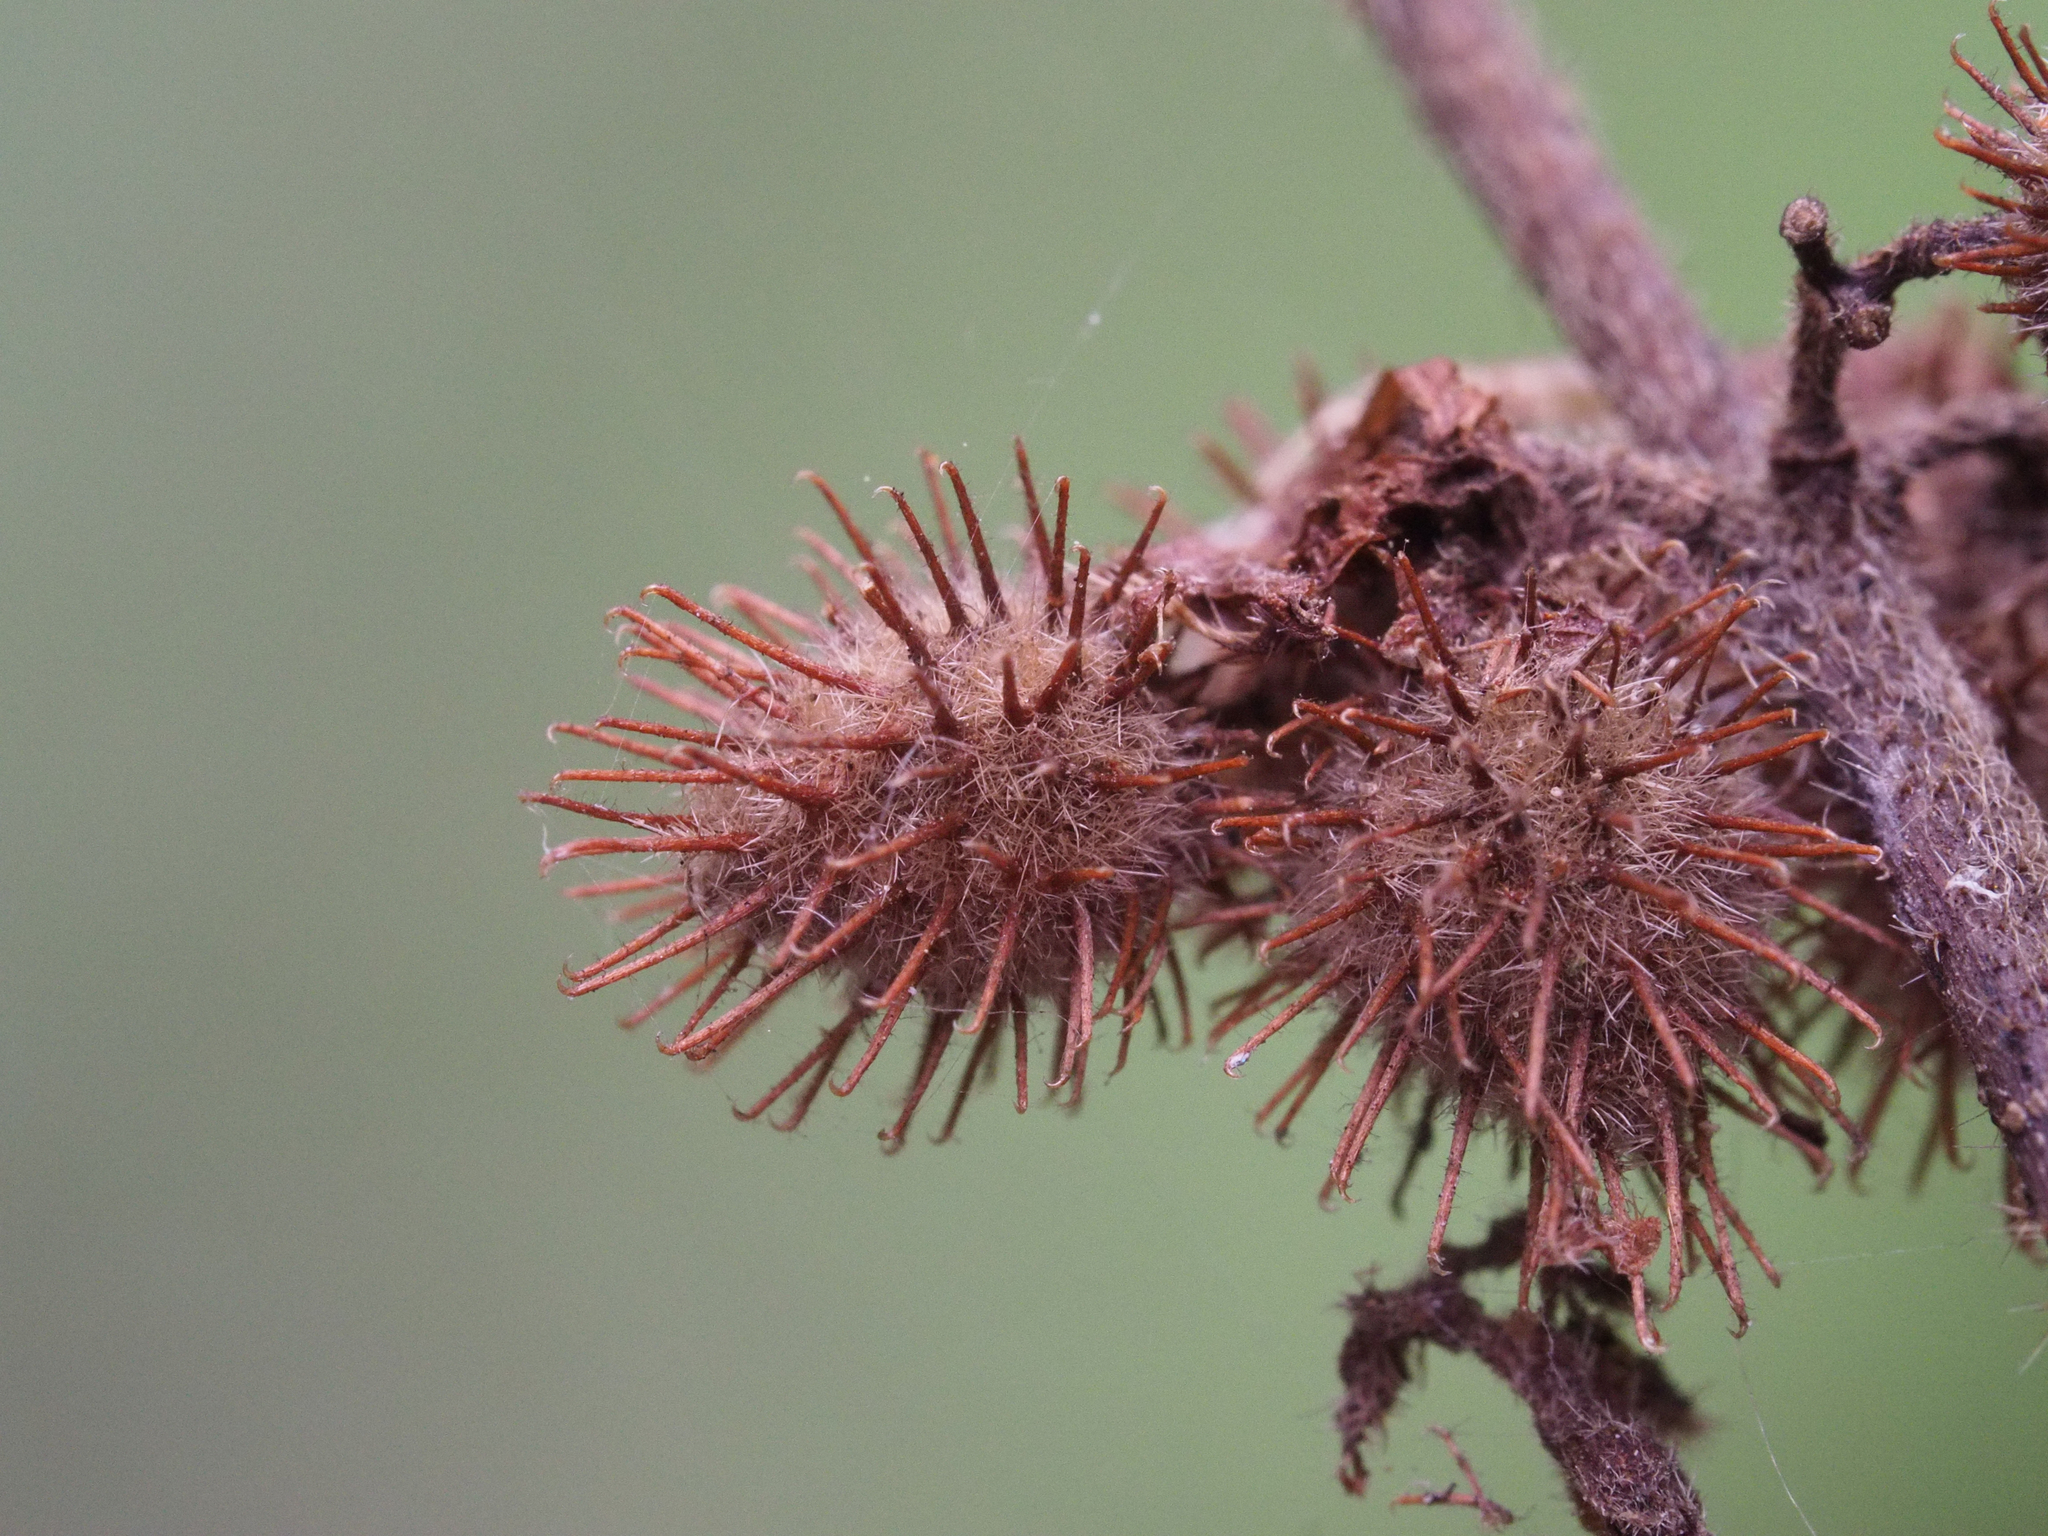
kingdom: Plantae
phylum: Tracheophyta
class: Magnoliopsida
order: Malvales
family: Malvaceae
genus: Triumfetta
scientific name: Triumfetta rhomboidea
